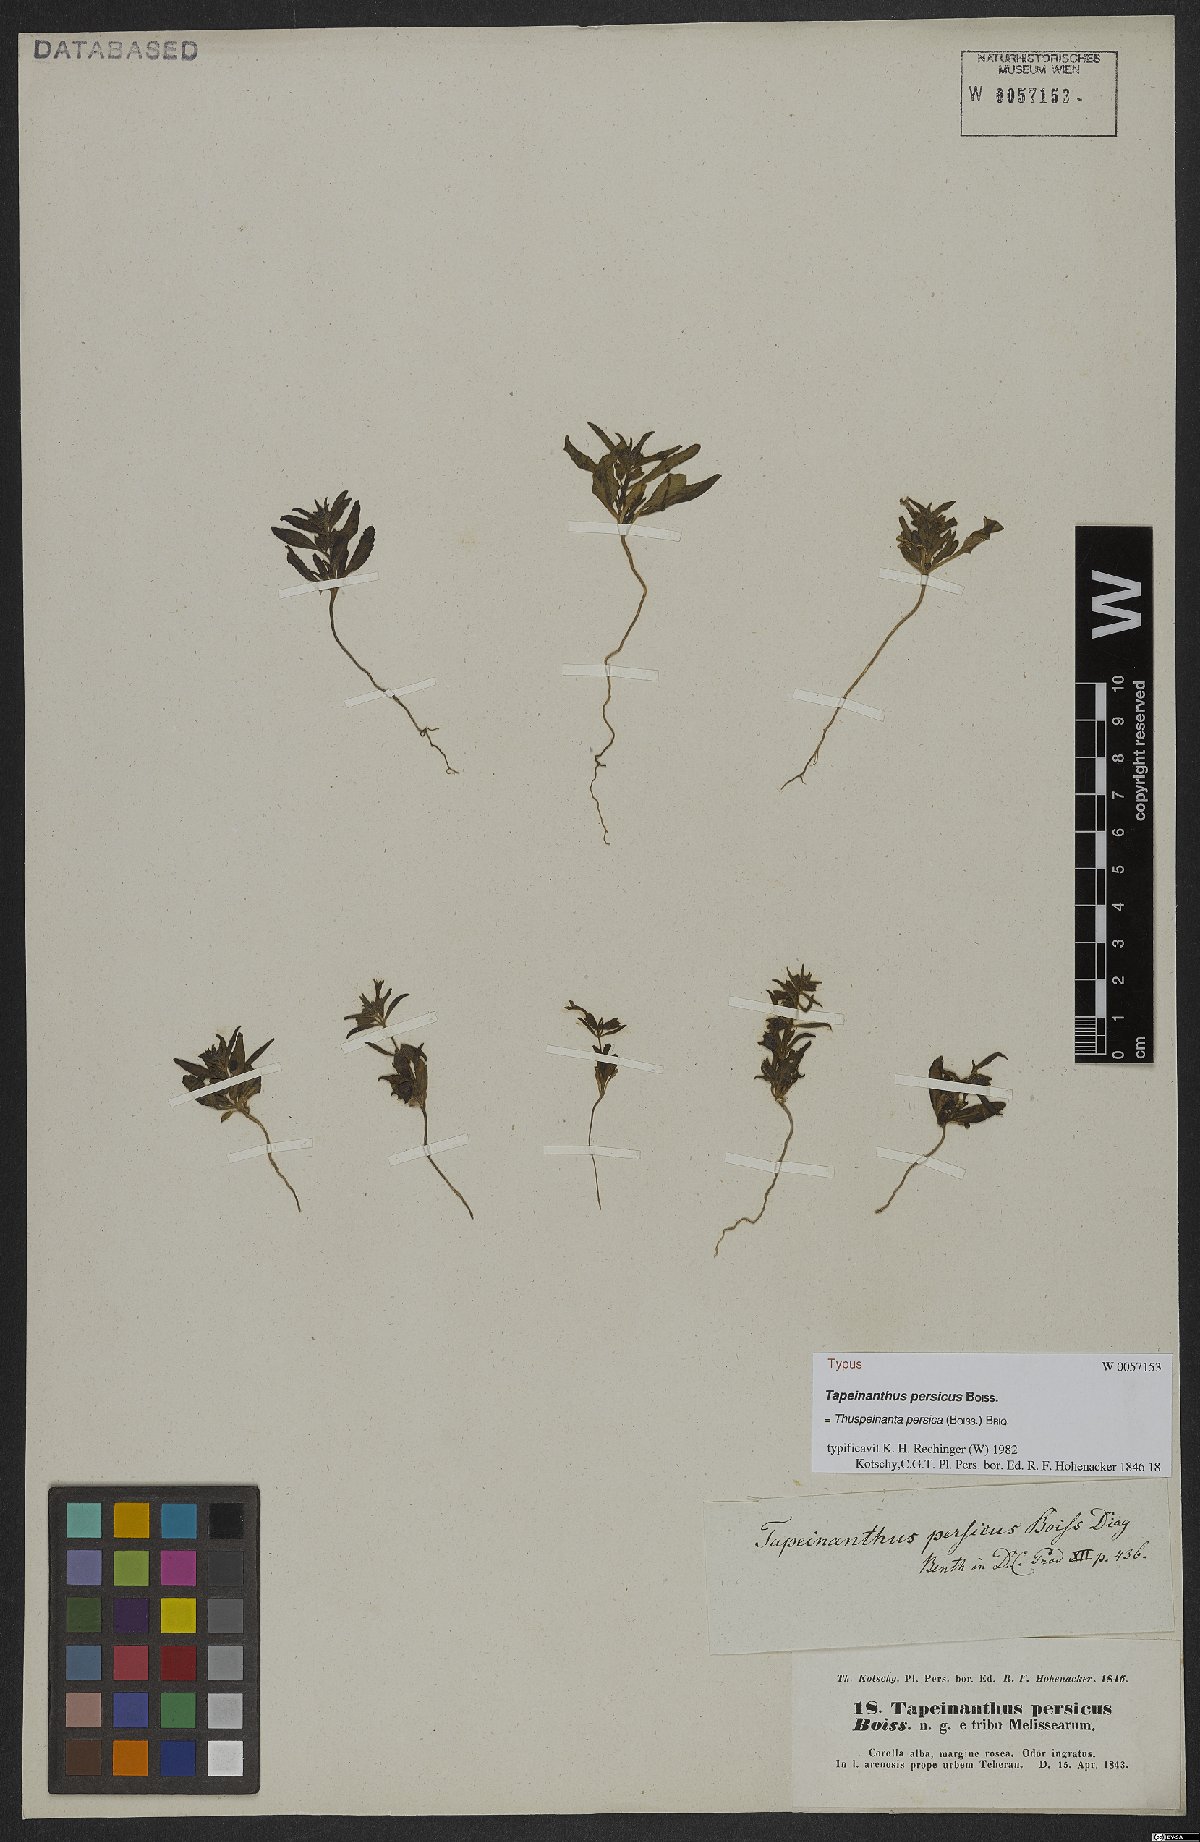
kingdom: Plantae
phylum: Tracheophyta
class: Magnoliopsida
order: Lamiales
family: Lamiaceae
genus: Thuspeinanta
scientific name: Thuspeinanta persica
